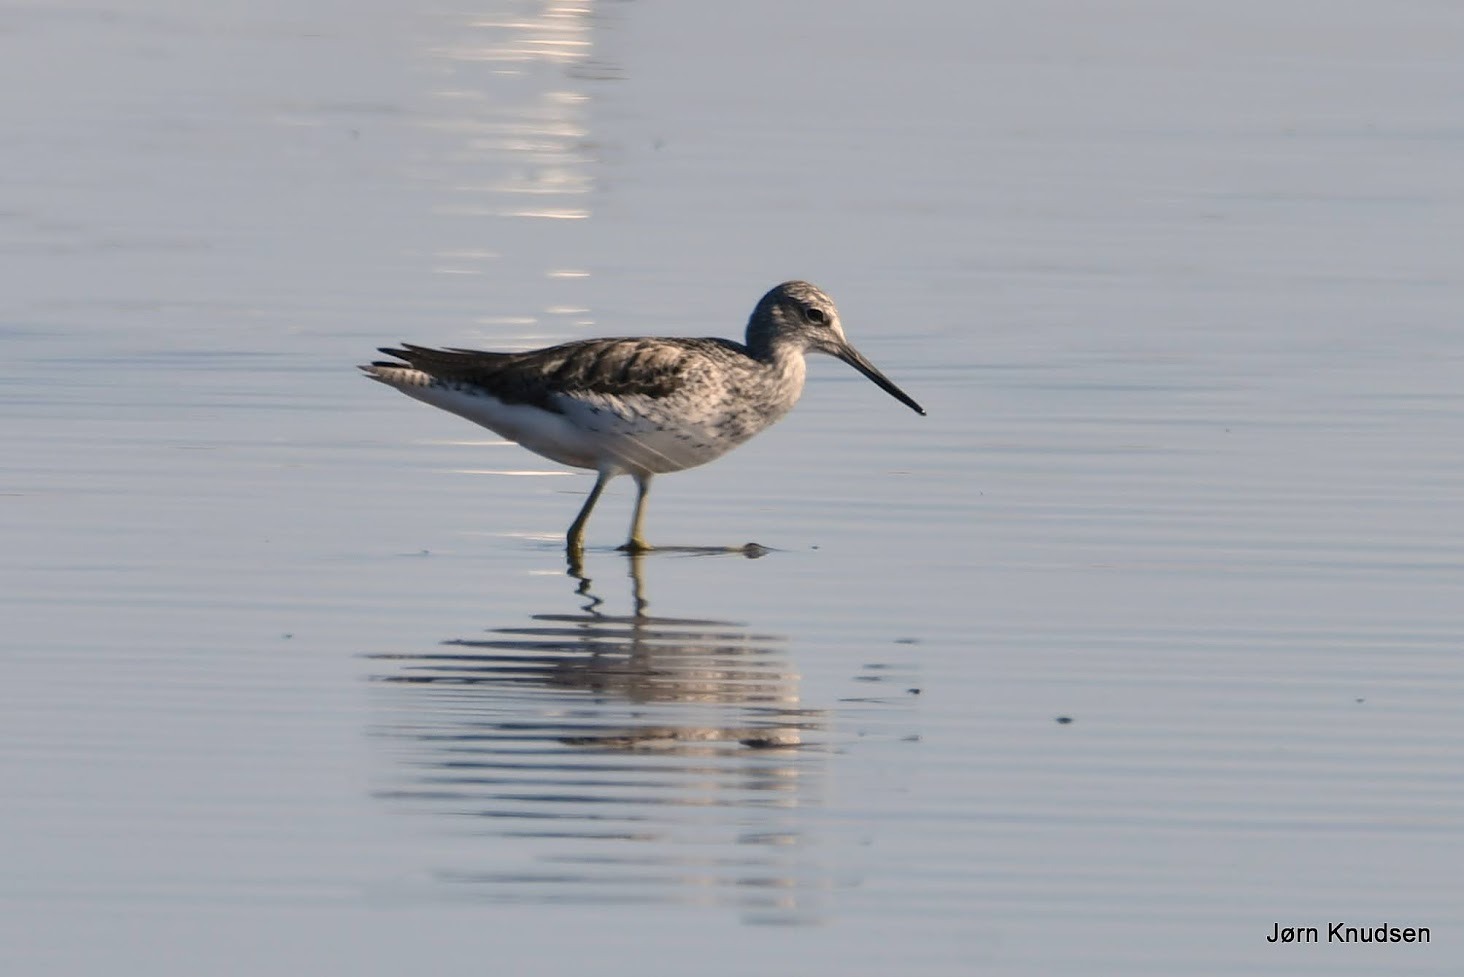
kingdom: Animalia
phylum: Chordata
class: Aves
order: Charadriiformes
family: Scolopacidae
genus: Tringa
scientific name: Tringa nebularia
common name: Hvidklire
